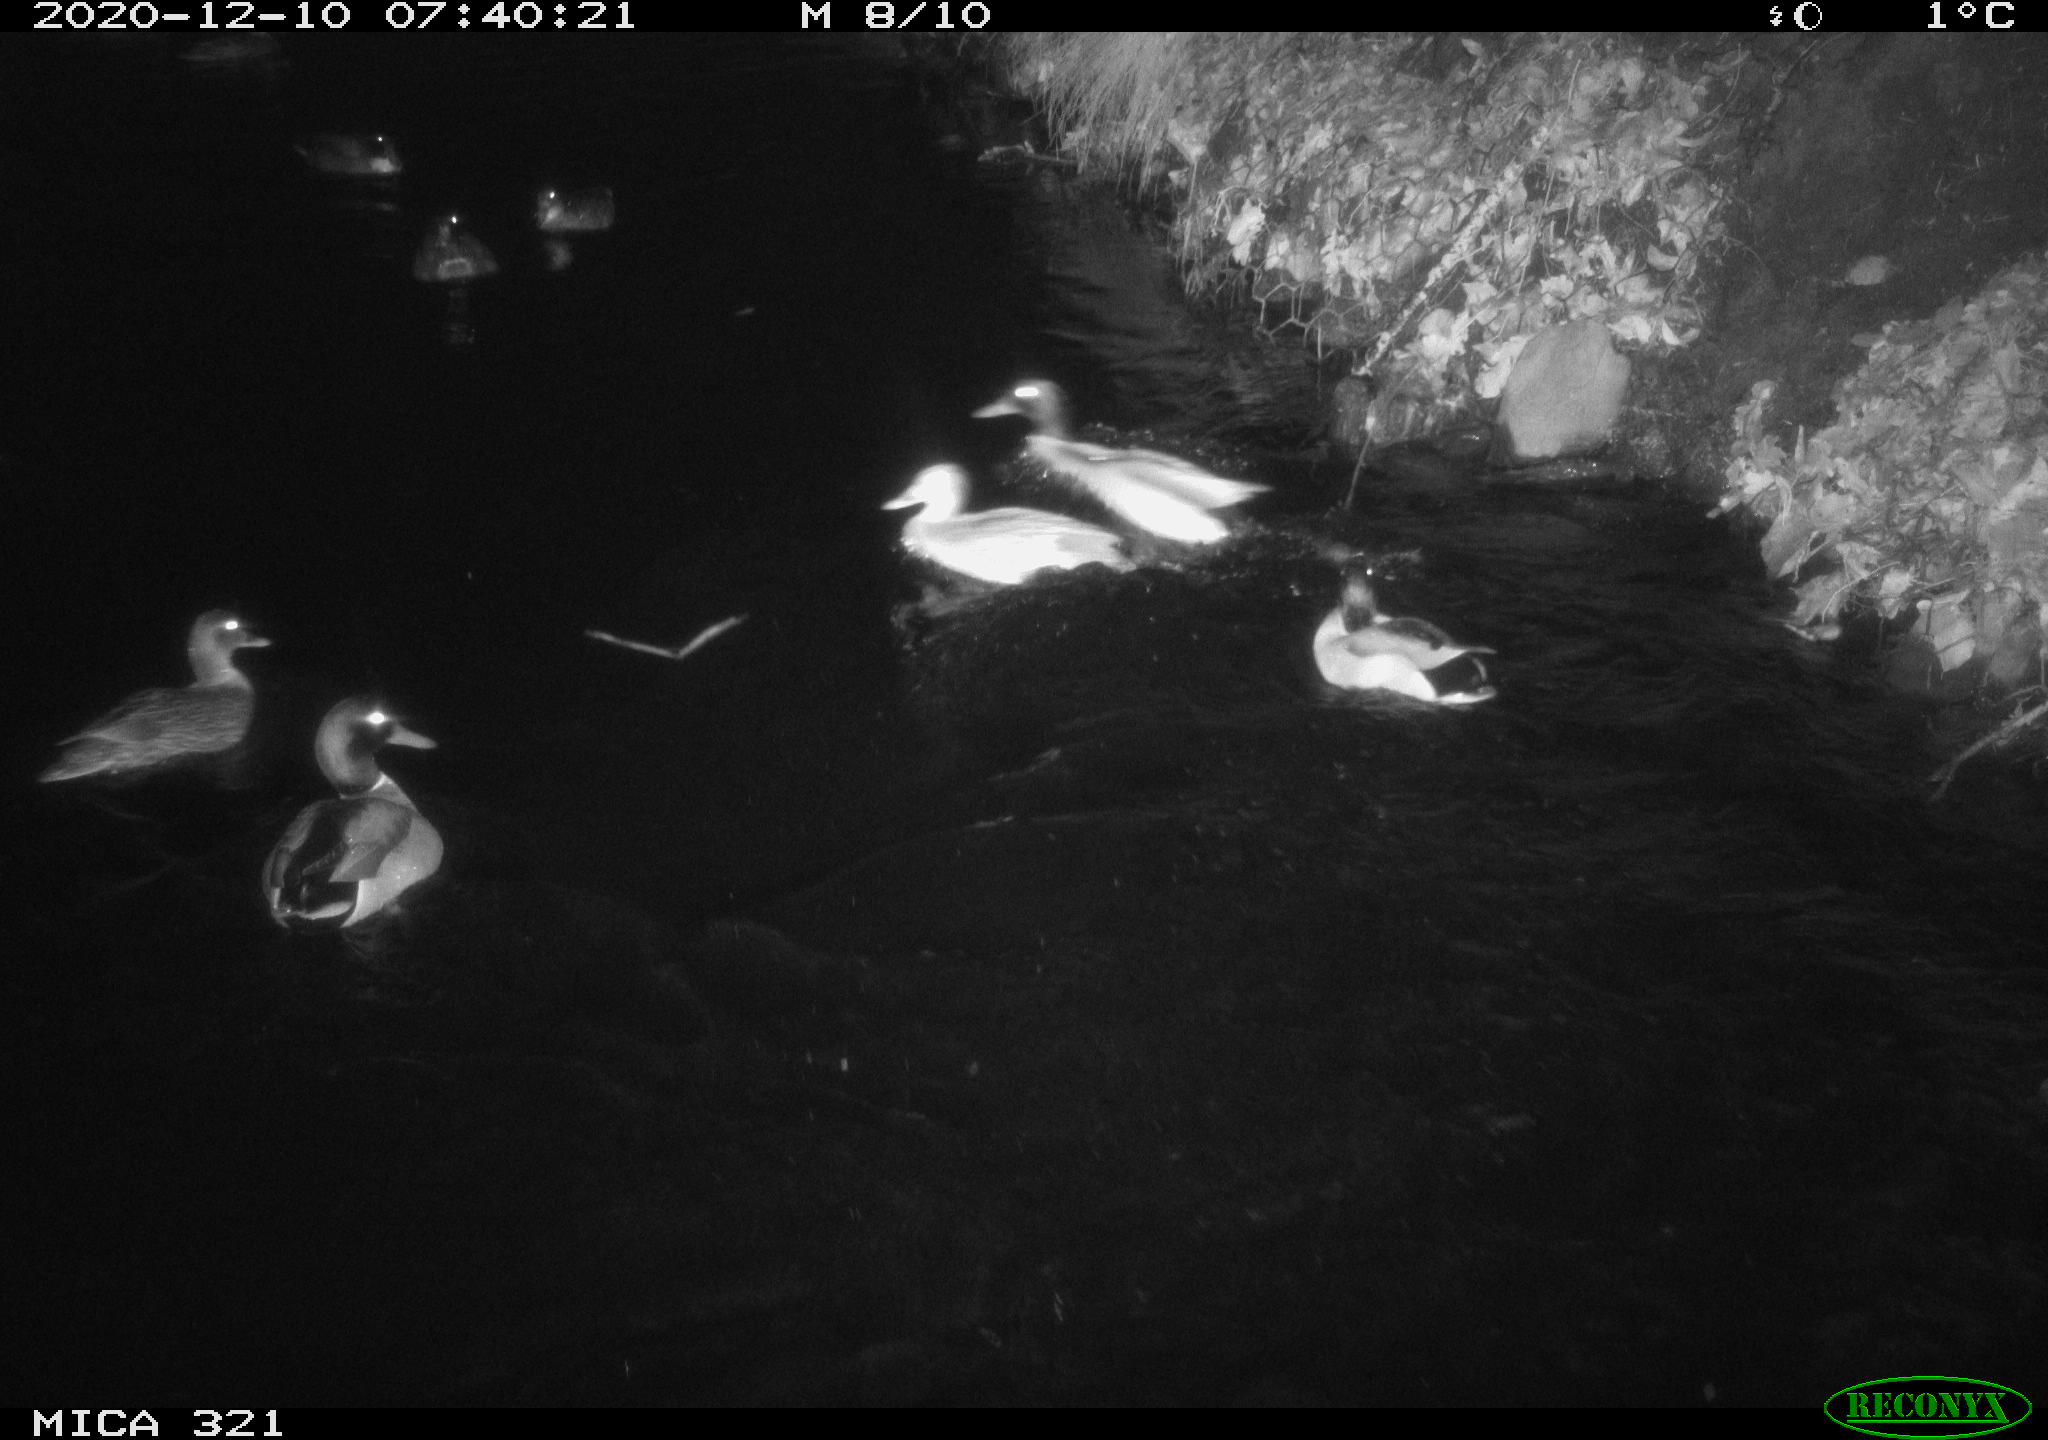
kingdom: Animalia
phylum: Chordata
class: Aves
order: Anseriformes
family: Anatidae
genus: Anas
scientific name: Anas platyrhynchos
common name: Mallard
